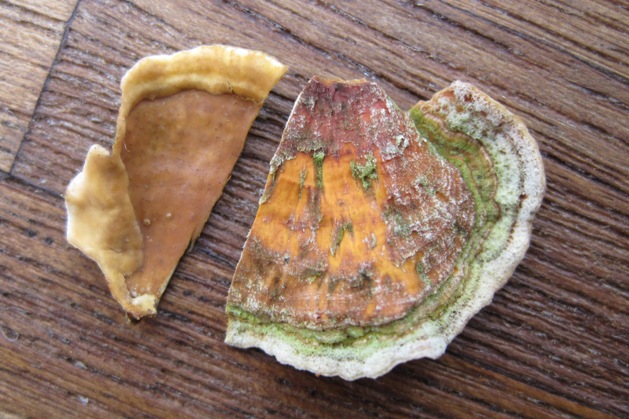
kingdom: Fungi
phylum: Basidiomycota
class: Agaricomycetes
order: Russulales
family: Stereaceae
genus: Stereum
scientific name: Stereum subtomentosum
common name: smuk lædersvamp
